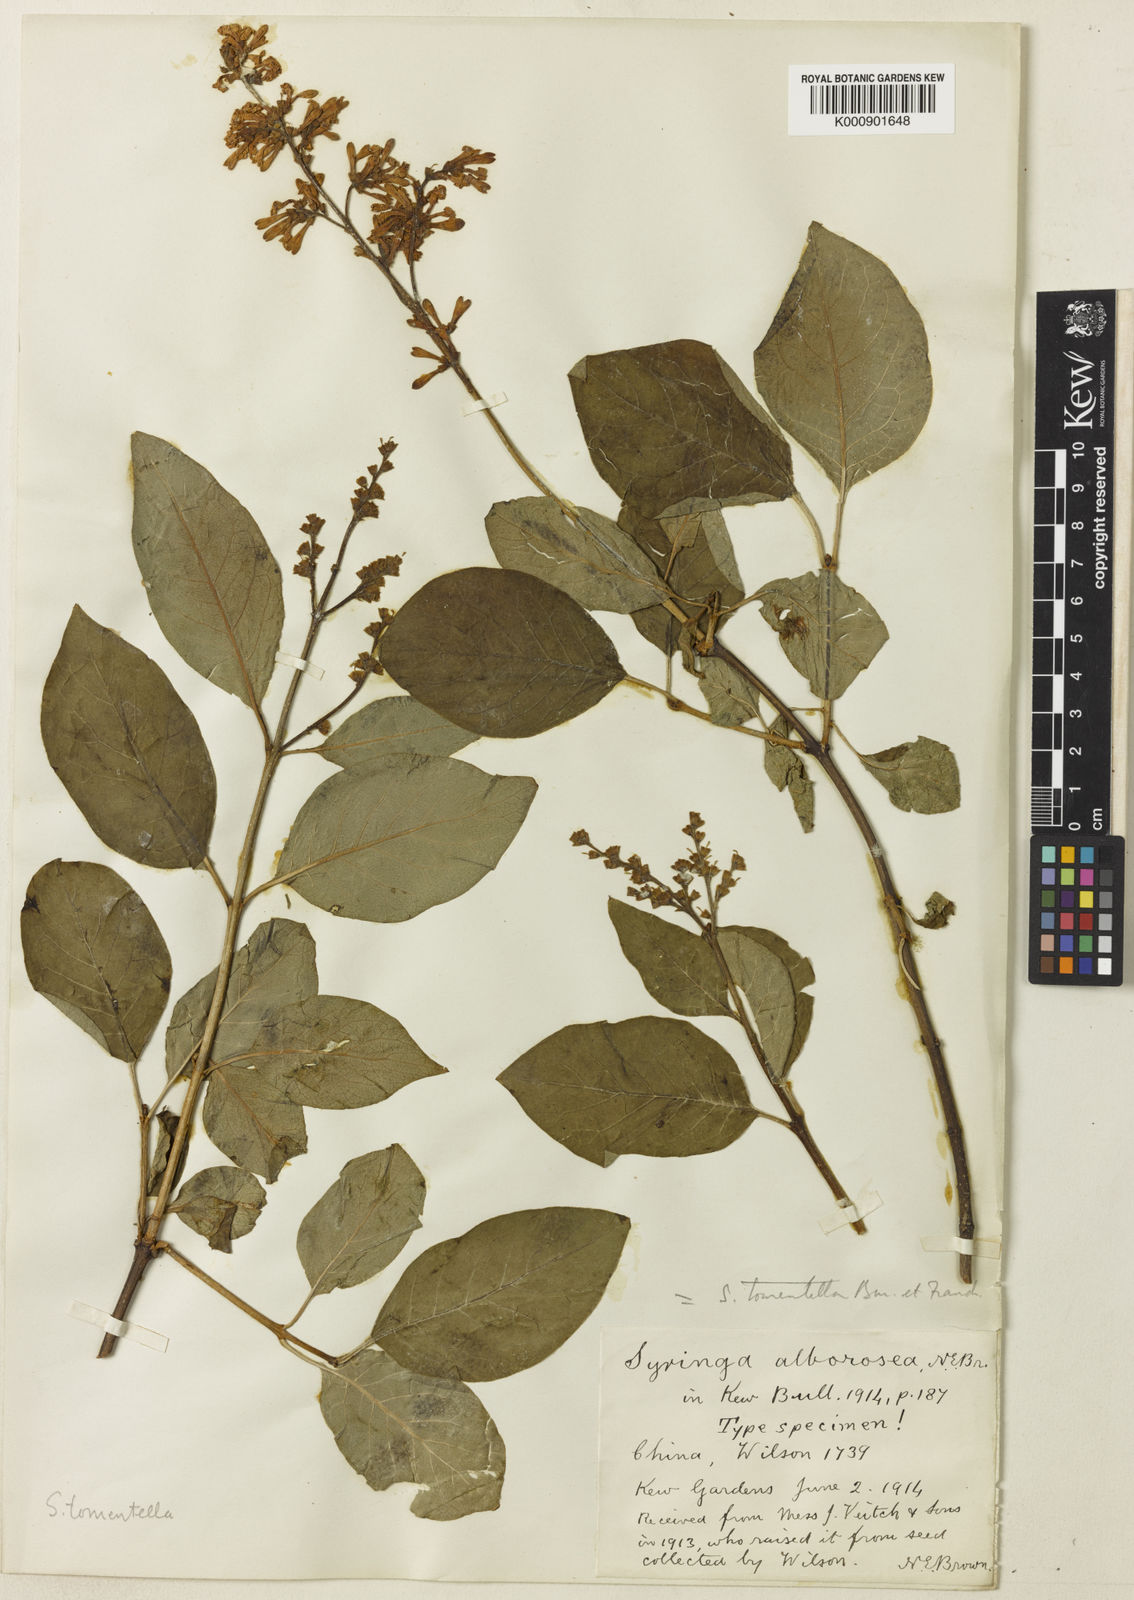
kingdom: Plantae
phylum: Tracheophyta
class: Magnoliopsida
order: Lamiales
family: Oleaceae
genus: Syringa
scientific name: Syringa tomentella
